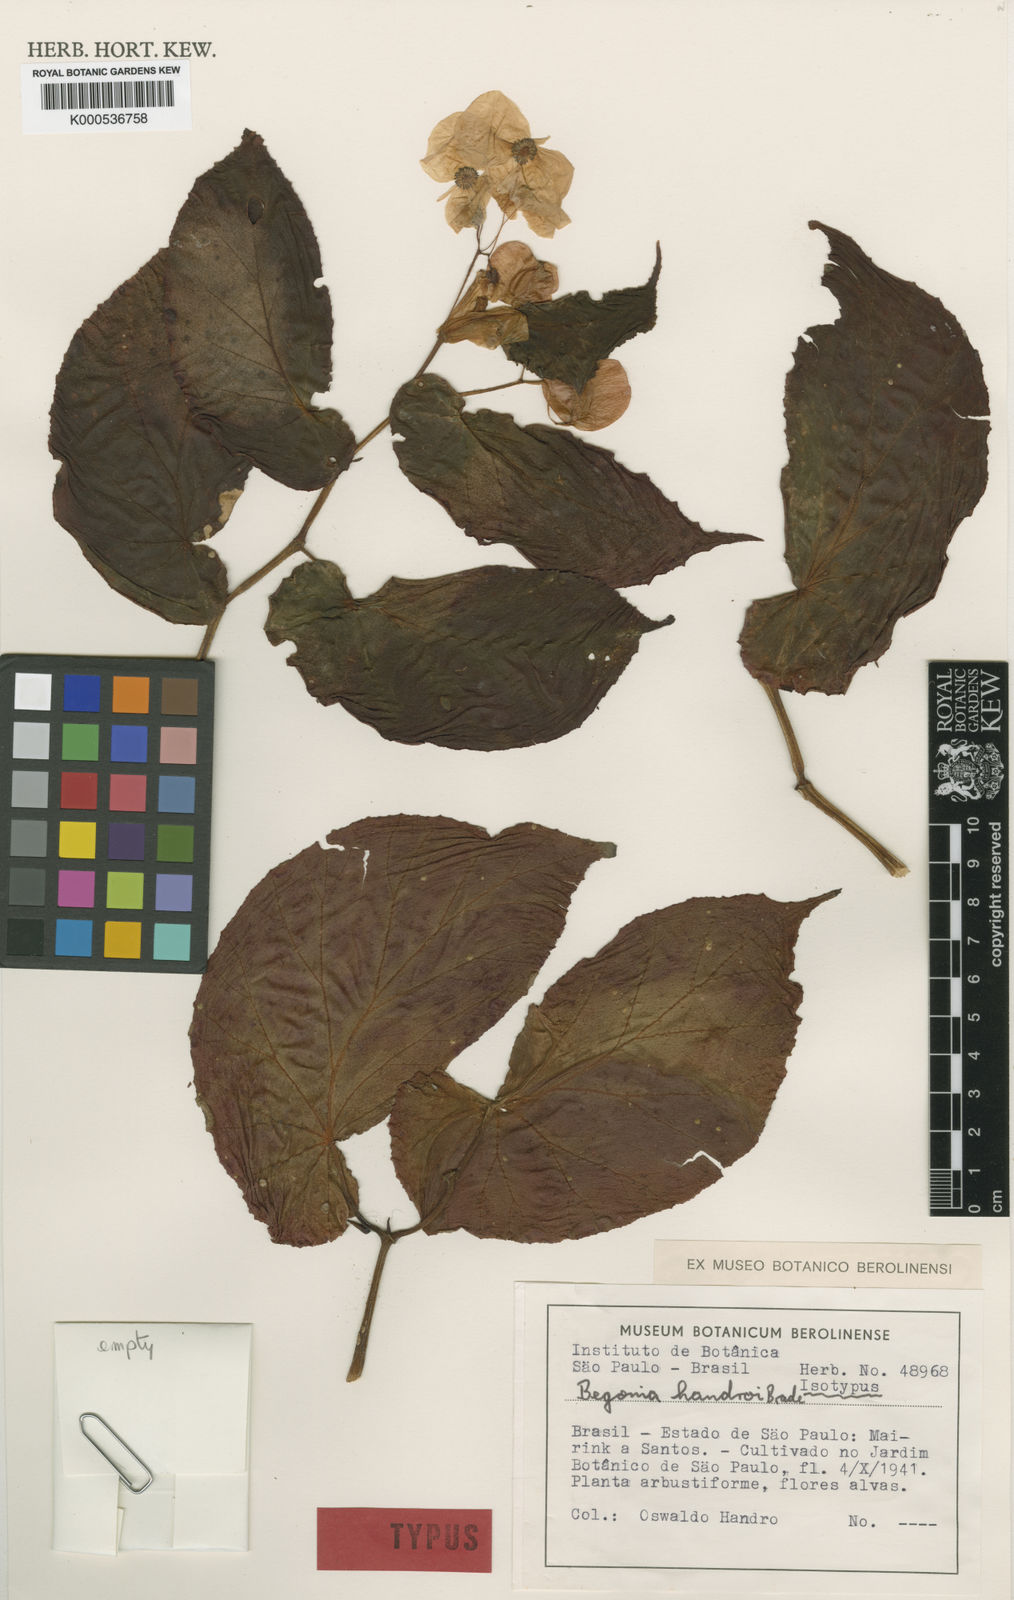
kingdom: Plantae
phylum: Tracheophyta
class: Magnoliopsida
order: Cucurbitales
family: Begoniaceae
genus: Begonia
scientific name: Begonia handroi
